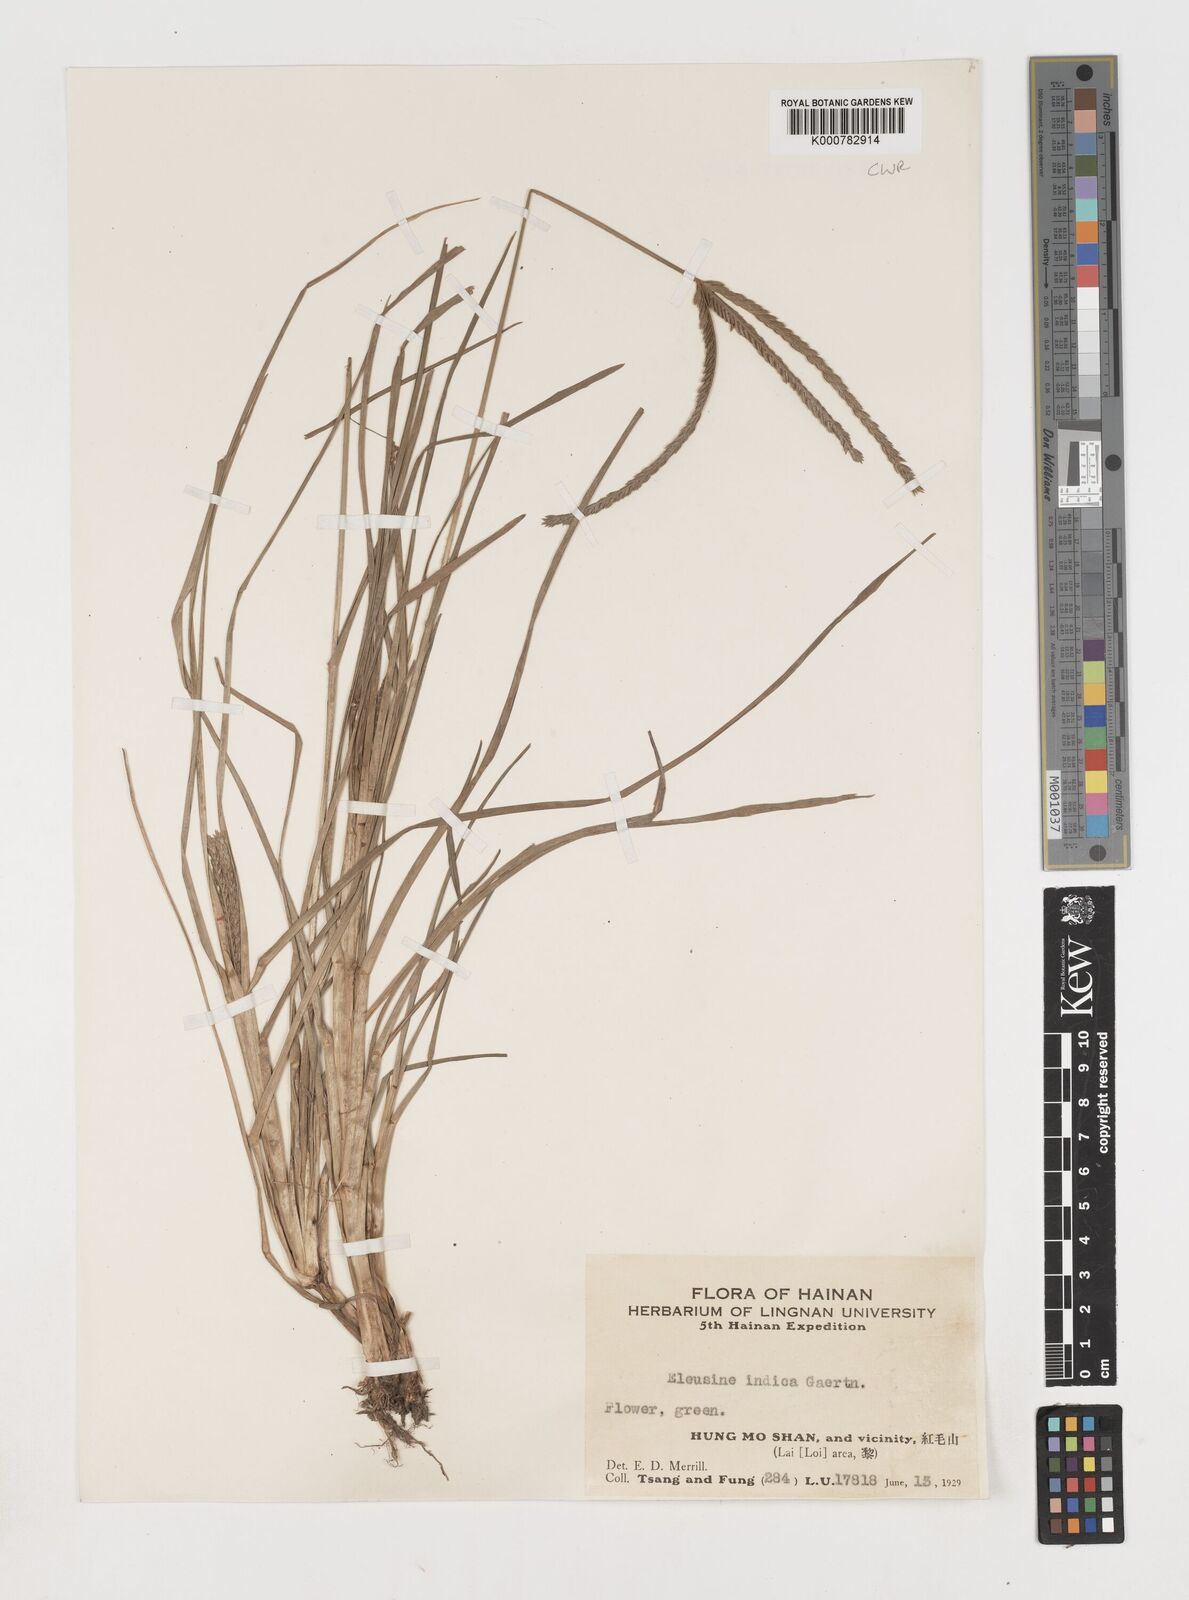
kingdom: Plantae
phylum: Tracheophyta
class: Liliopsida
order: Poales
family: Poaceae
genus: Eleusine
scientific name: Eleusine indica
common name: Yard-grass
